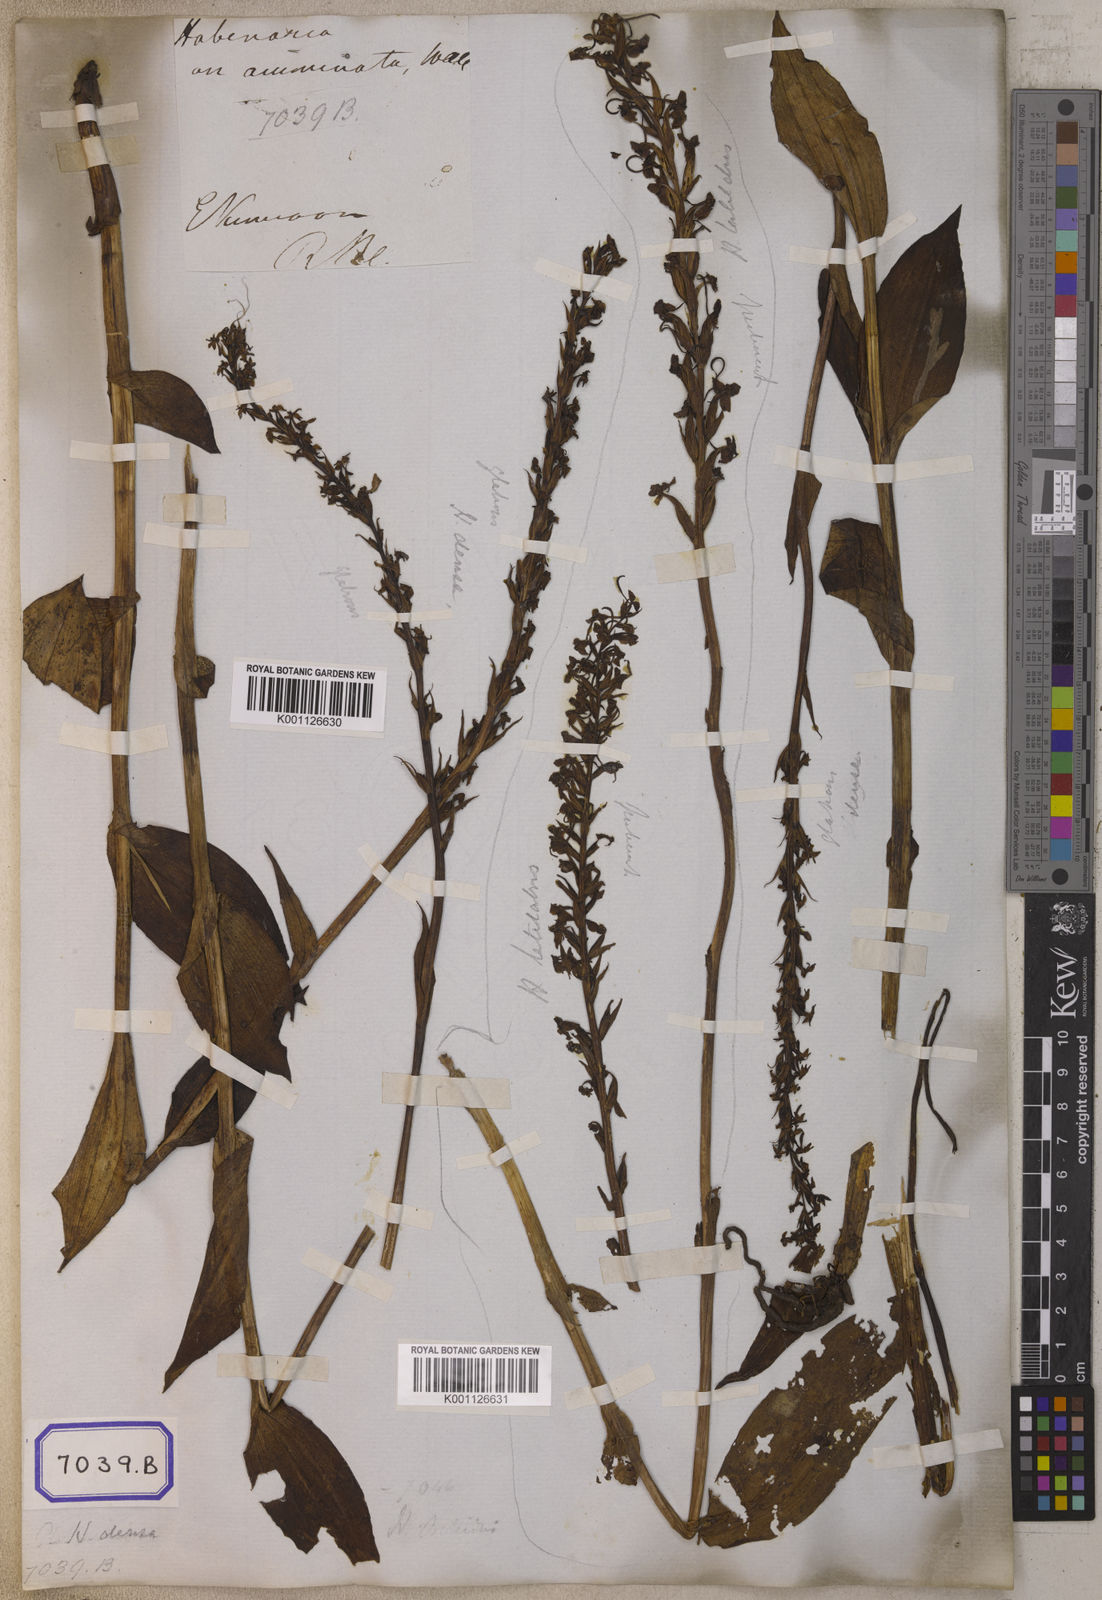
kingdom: Plantae
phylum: Tracheophyta
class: Liliopsida
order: Asparagales
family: Orchidaceae
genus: Platanthera
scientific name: Platanthera
